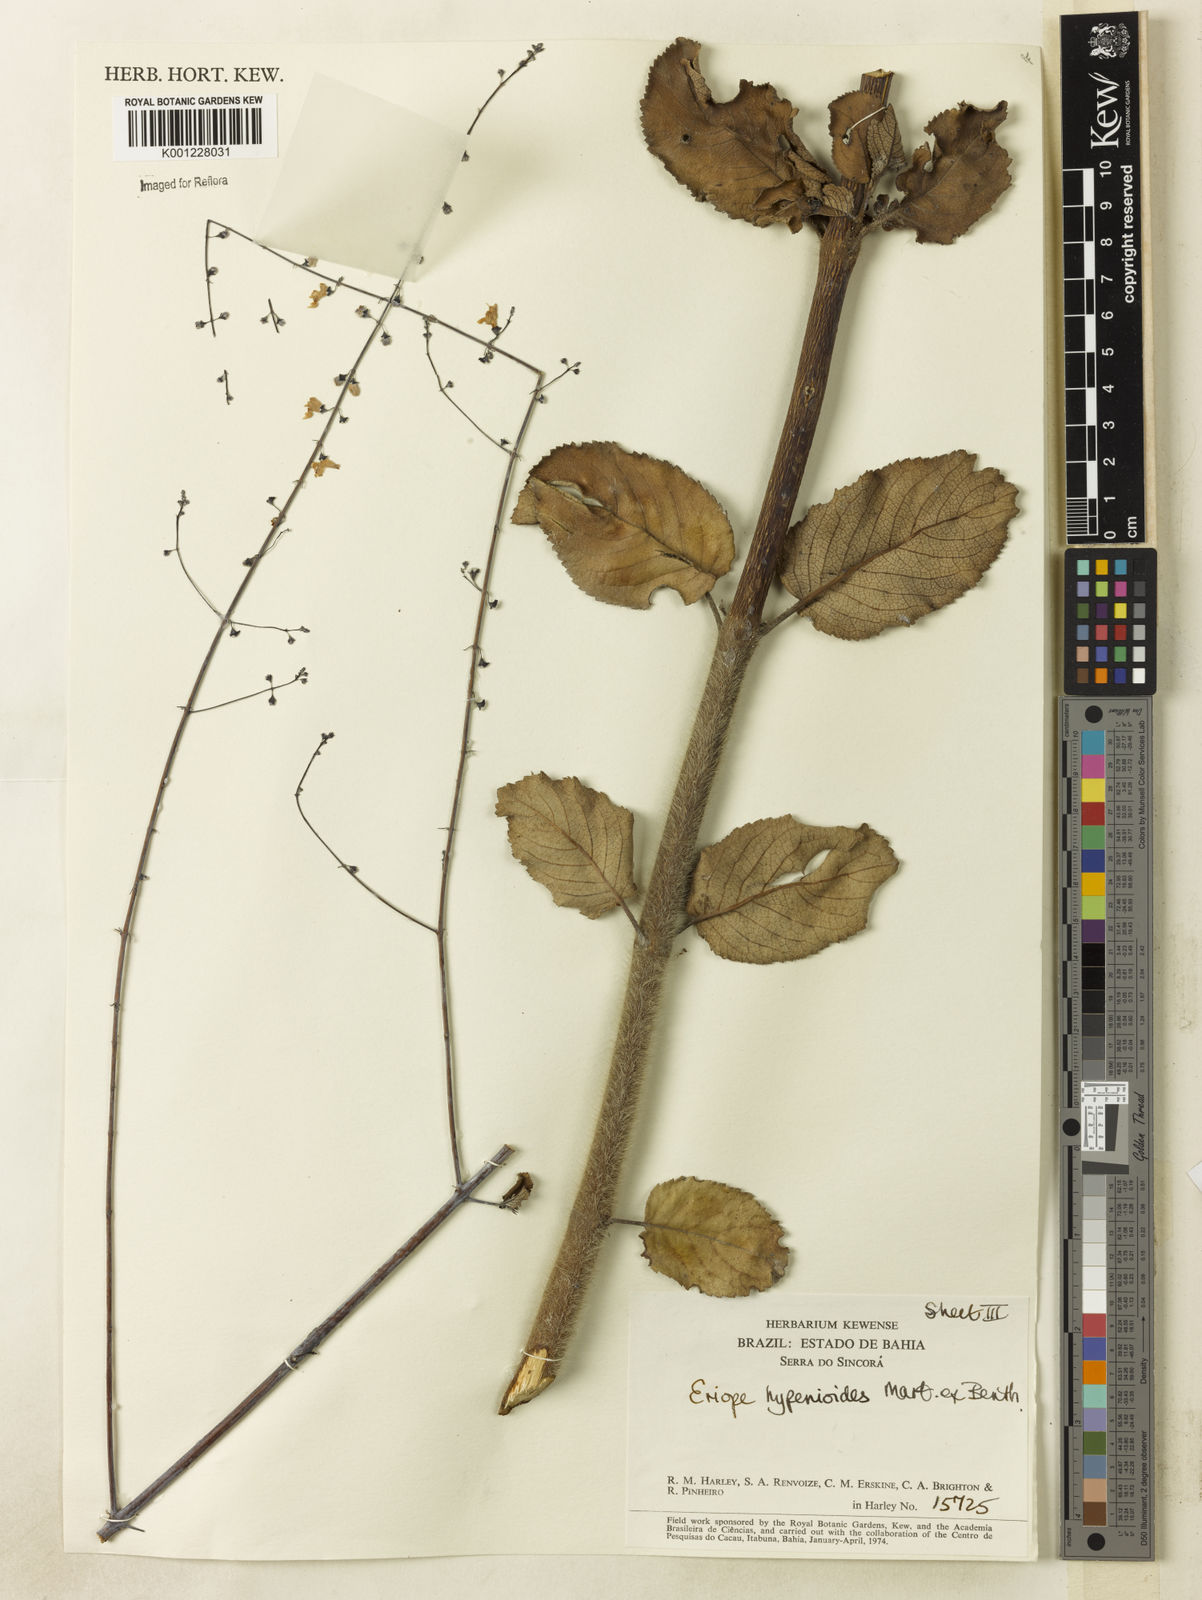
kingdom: Plantae
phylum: Tracheophyta
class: Magnoliopsida
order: Lamiales
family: Lamiaceae
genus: Eriope
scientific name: Eriope hypenioides
